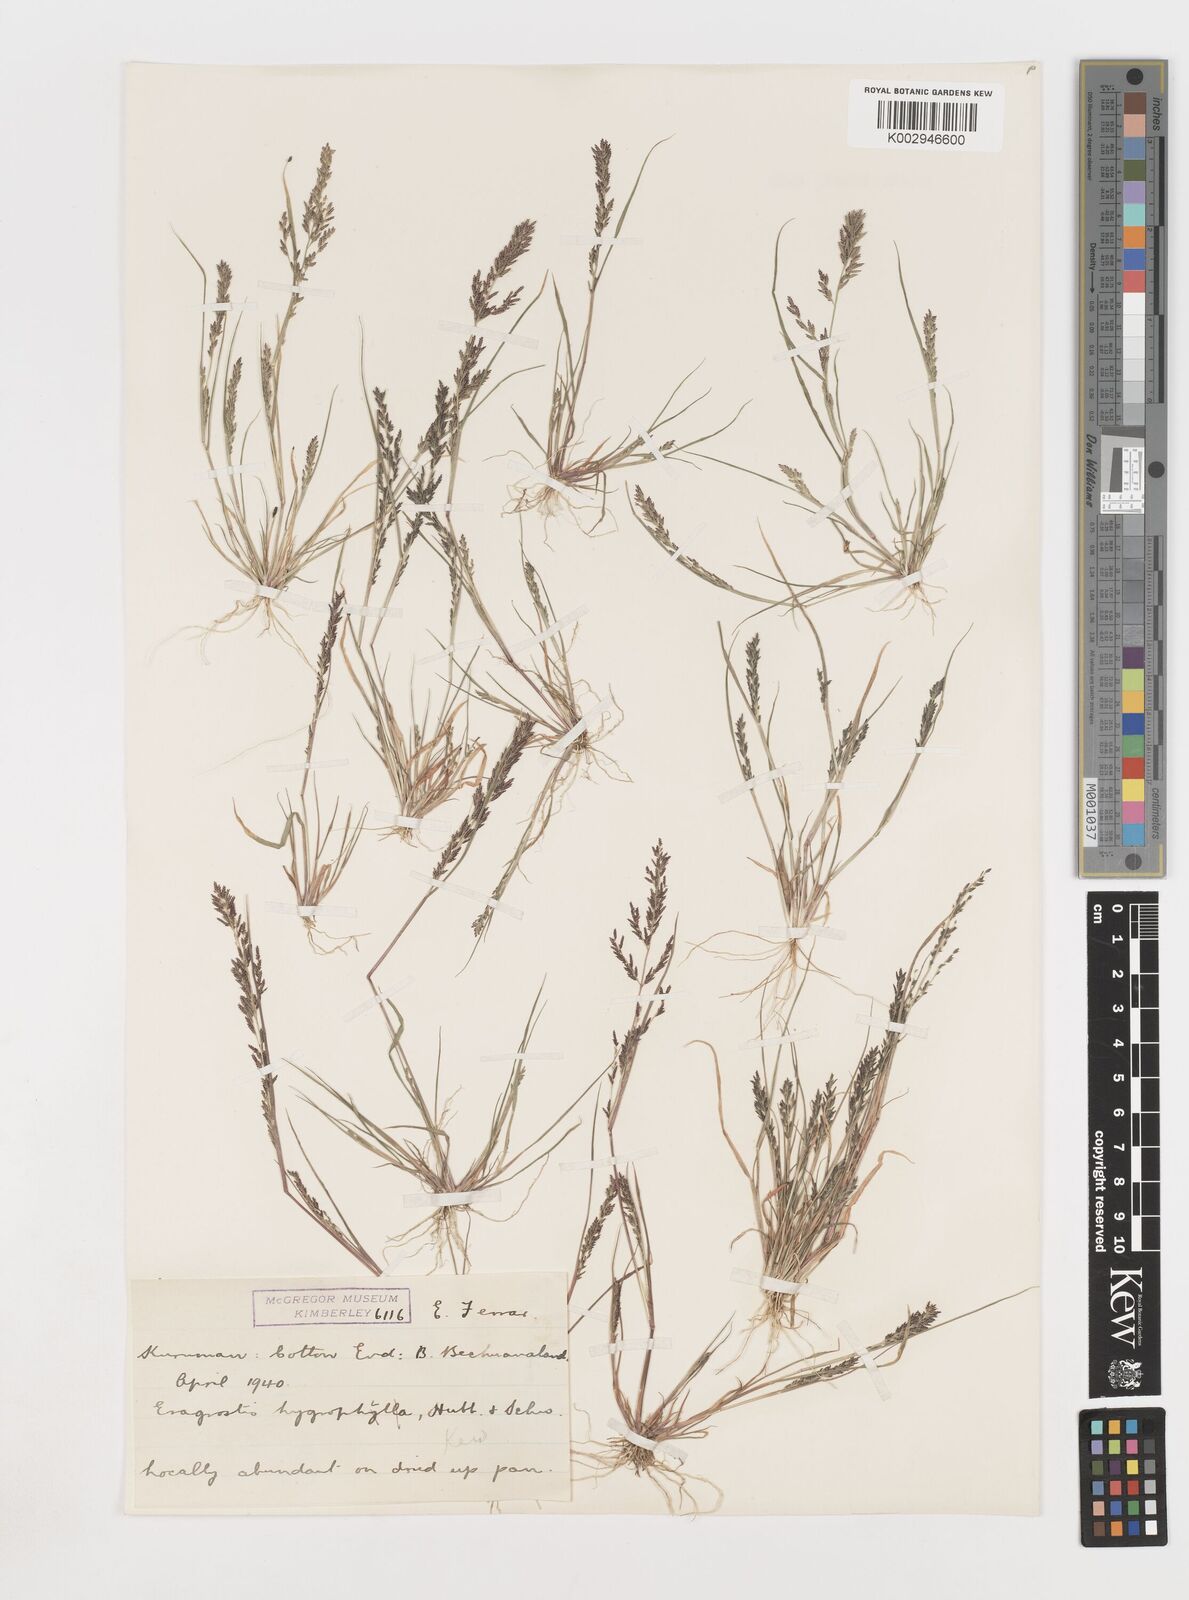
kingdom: Plantae
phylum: Tracheophyta
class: Liliopsida
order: Poales
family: Poaceae
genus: Eragrostis
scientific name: Eragrostis homomalla
